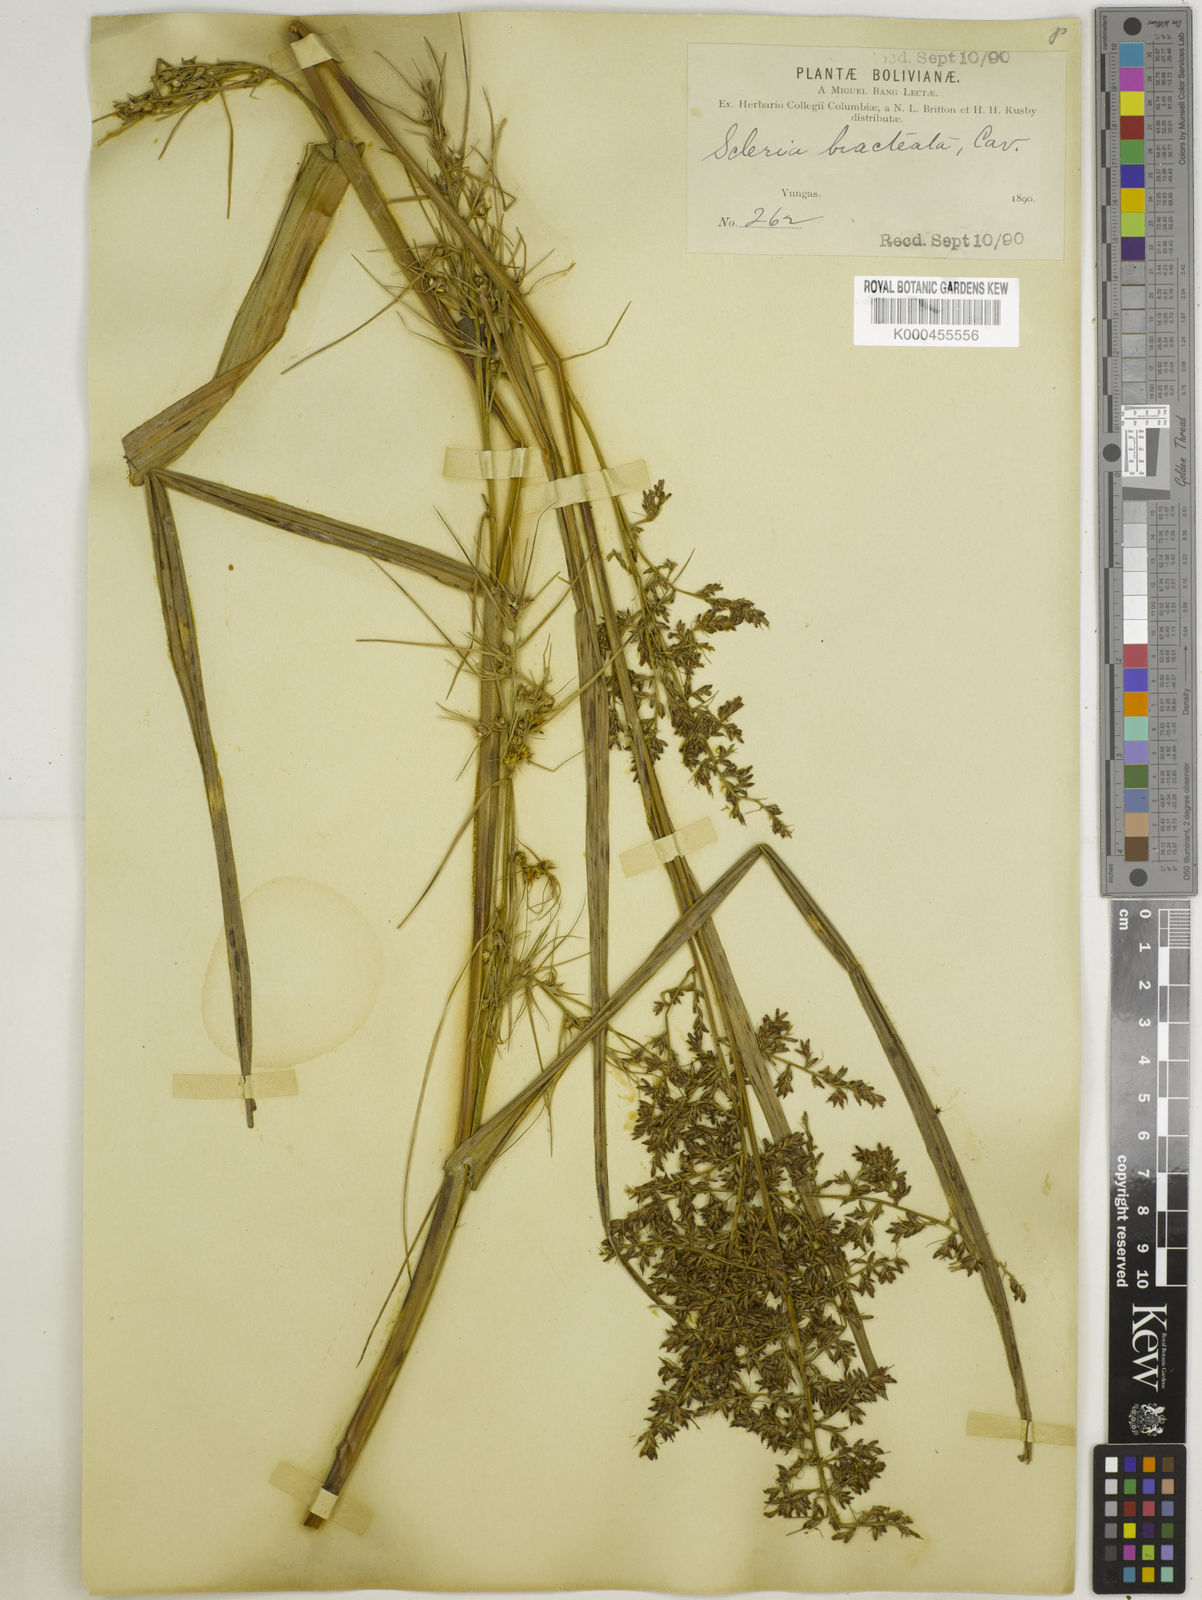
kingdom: Plantae
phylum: Tracheophyta
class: Liliopsida
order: Poales
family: Cyperaceae
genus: Scleria
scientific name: Scleria bracteata
